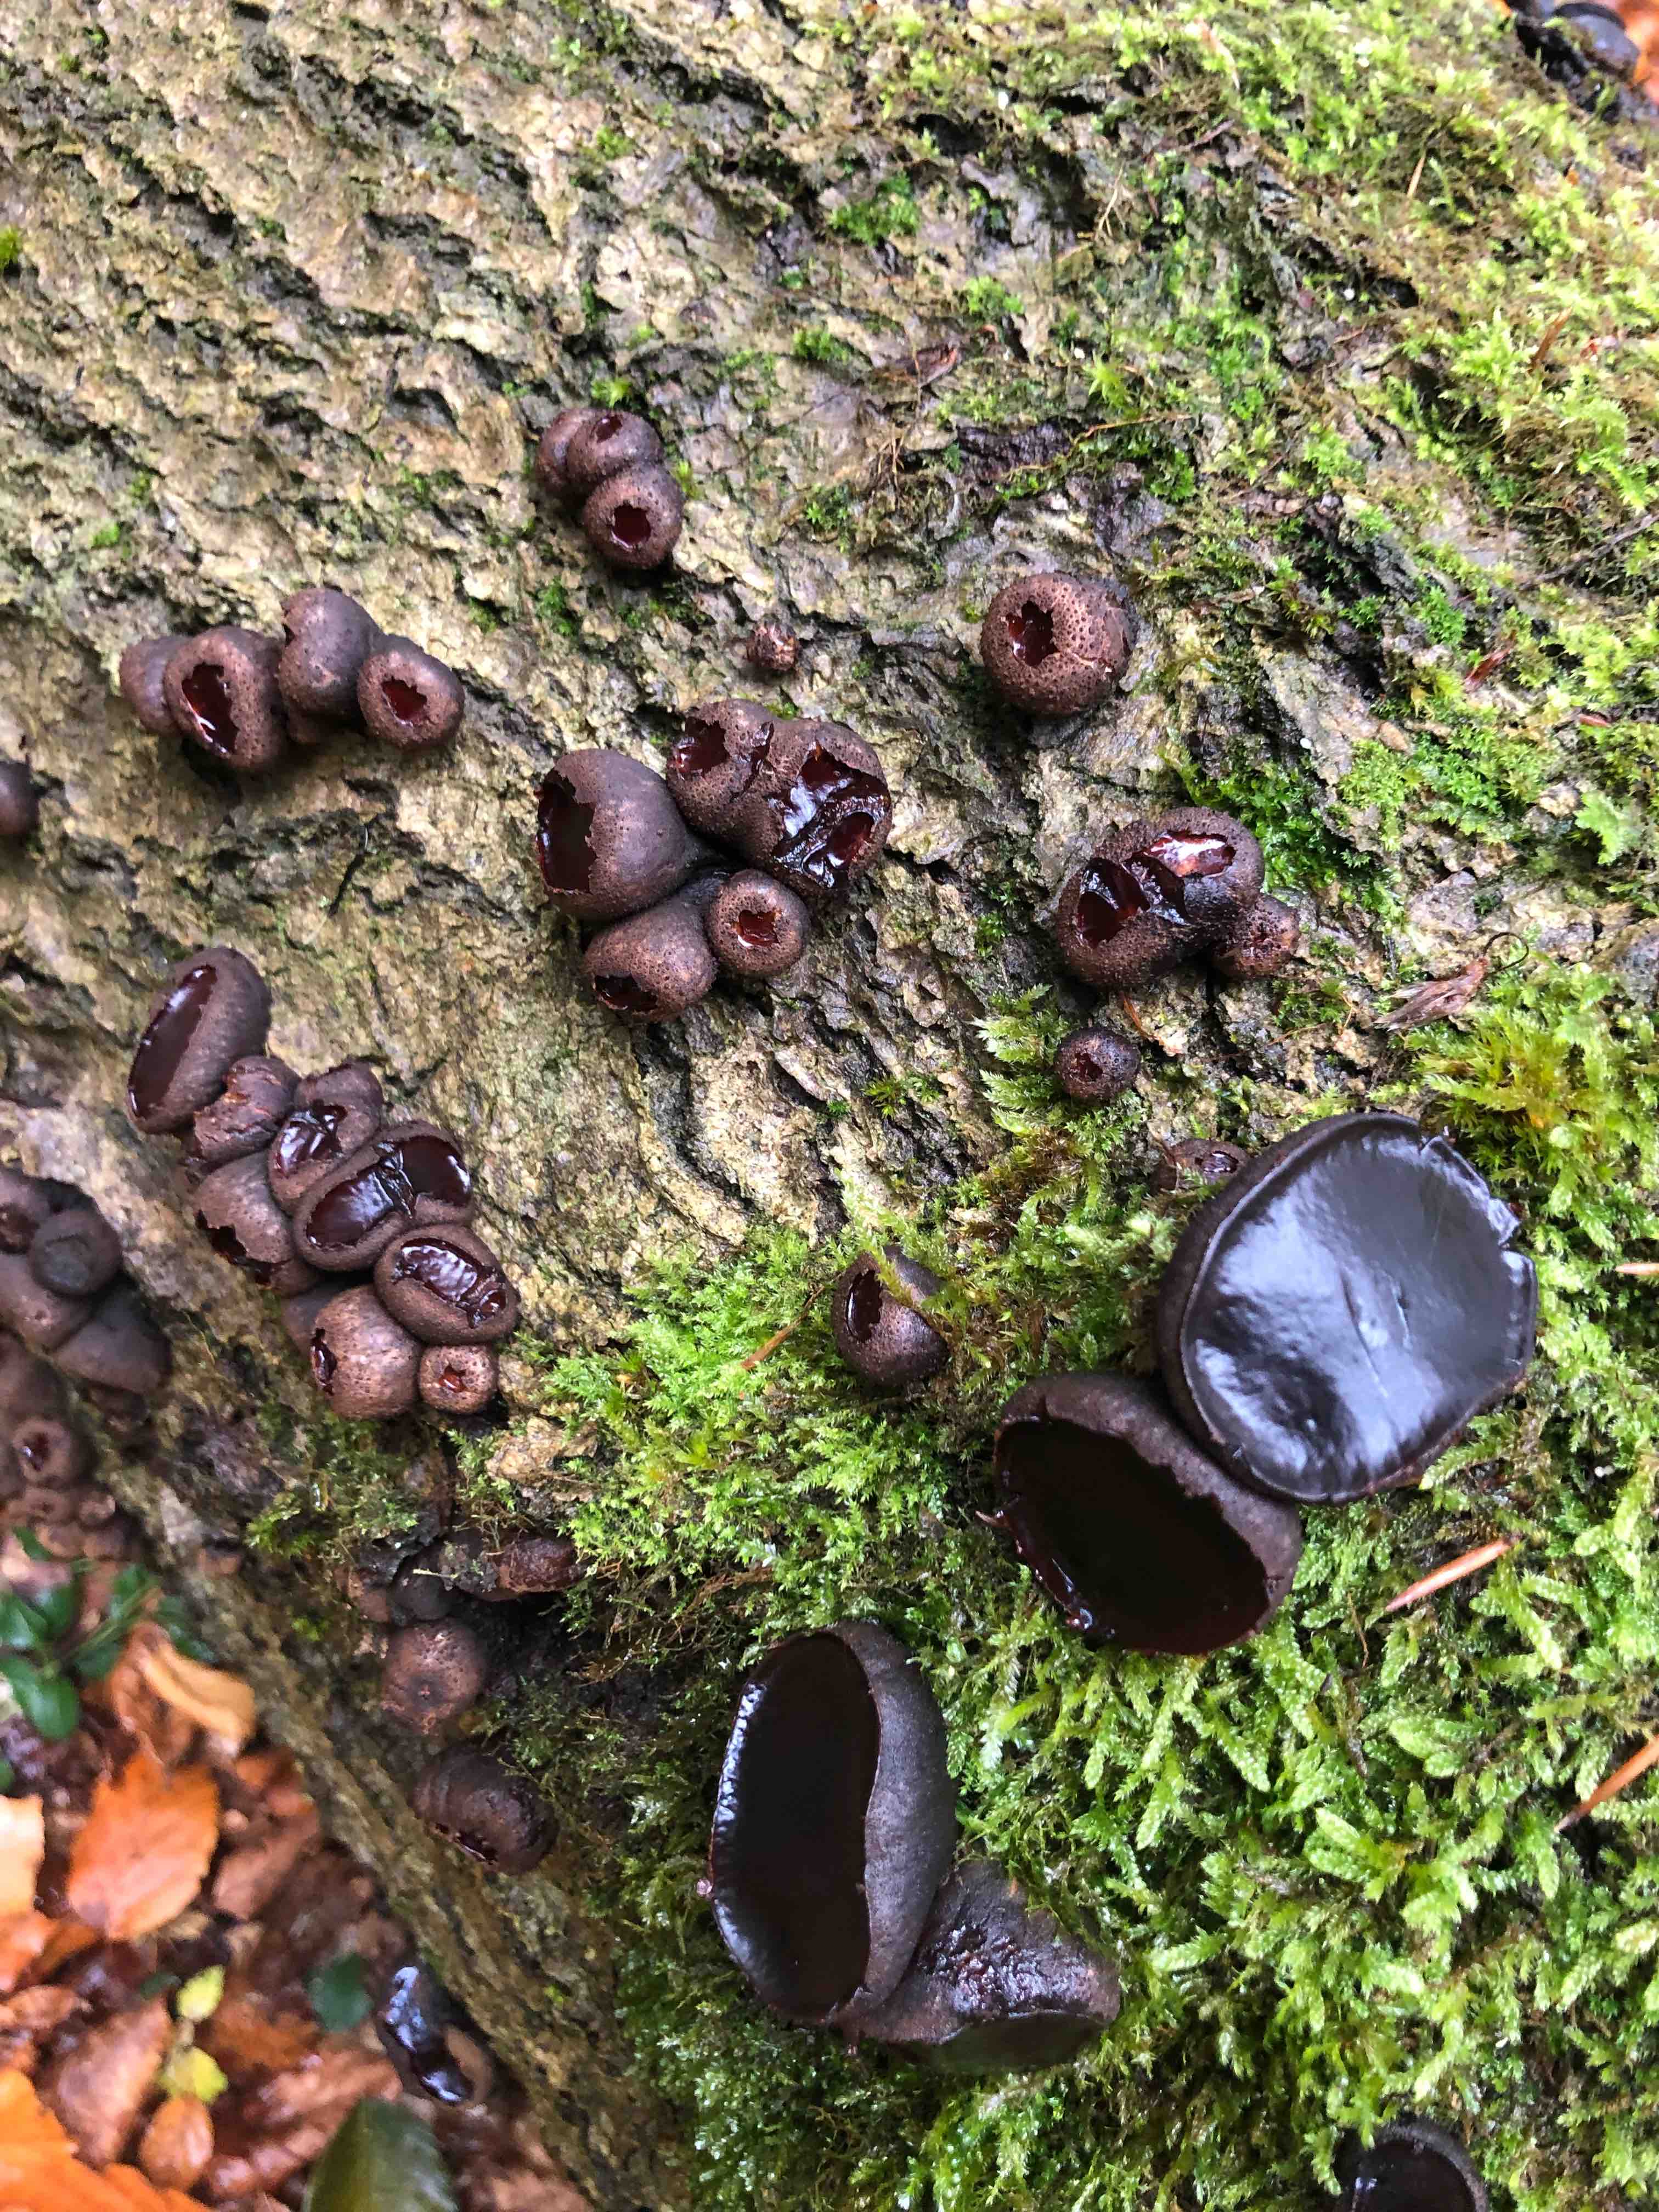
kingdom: Fungi
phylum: Ascomycota
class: Leotiomycetes
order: Phacidiales
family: Phacidiaceae
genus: Bulgaria
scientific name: Bulgaria inquinans
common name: afsmittende topsvamp
